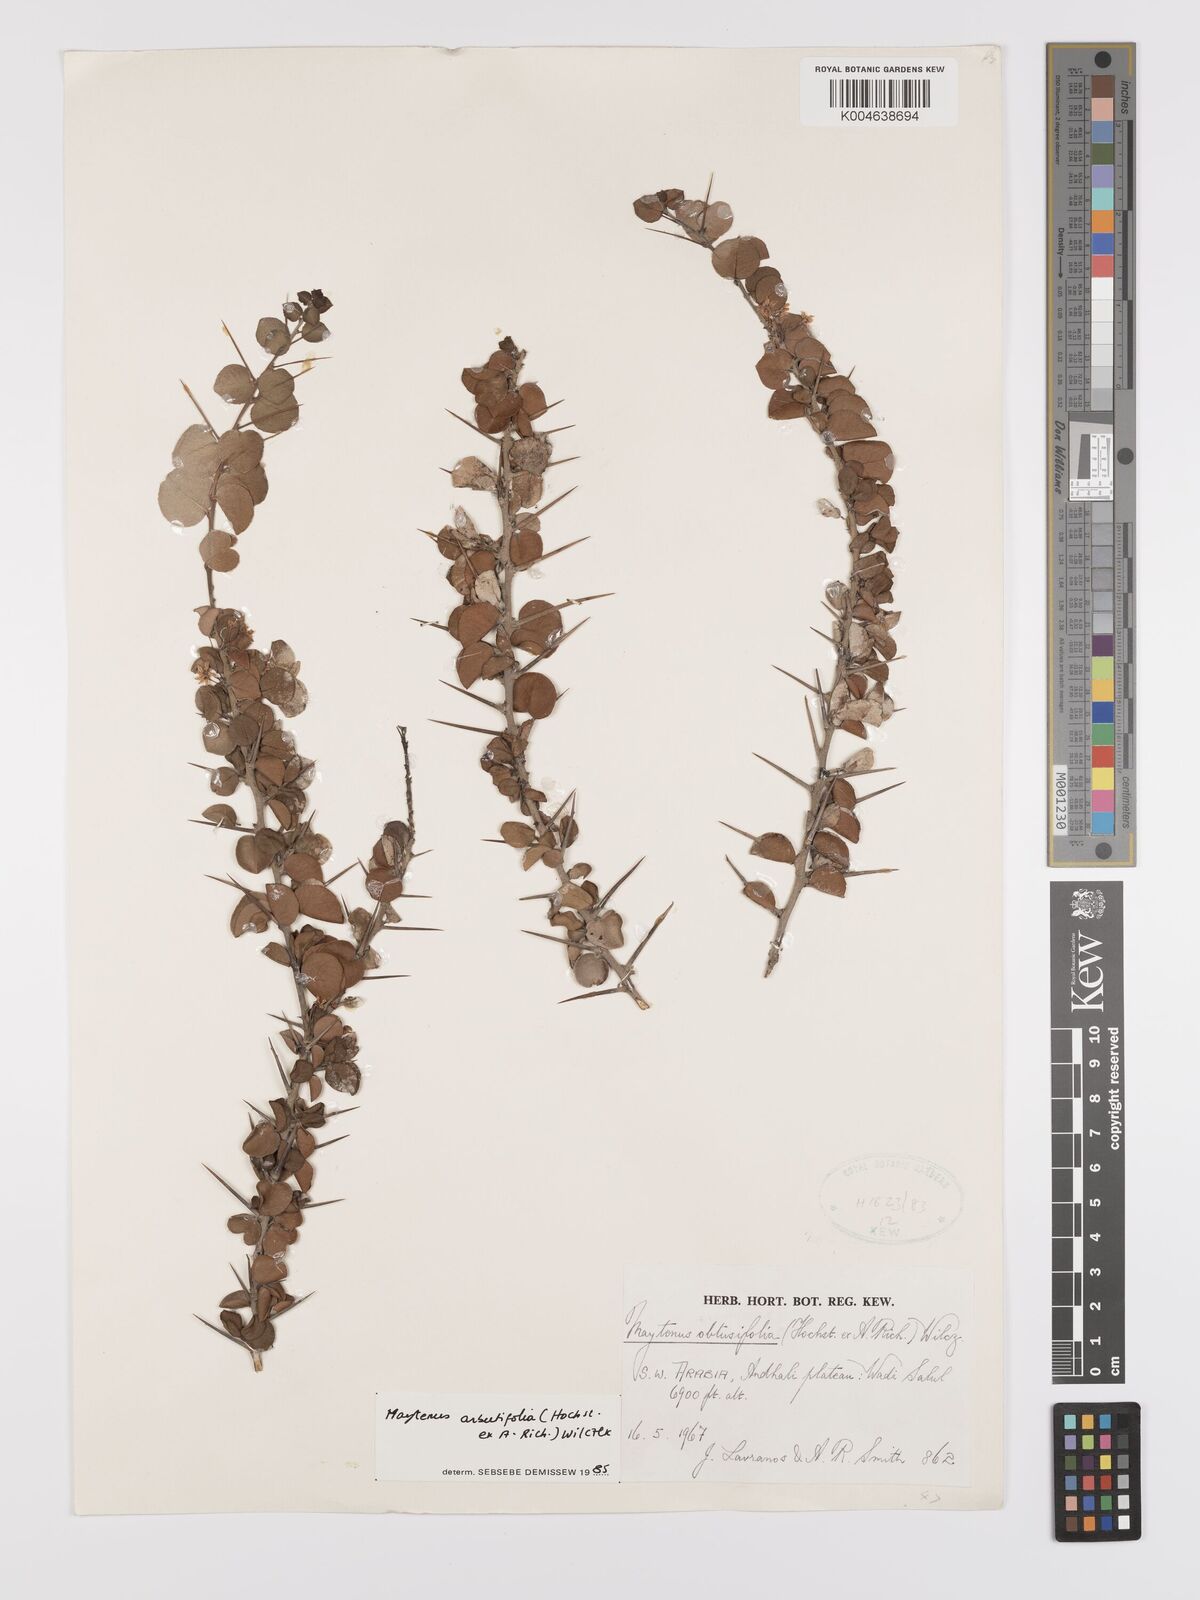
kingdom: Plantae
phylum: Tracheophyta
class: Magnoliopsida
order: Celastrales
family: Celastraceae
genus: Gymnosporia
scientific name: Gymnosporia arbutifolia
